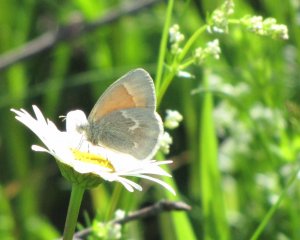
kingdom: Animalia
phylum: Arthropoda
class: Insecta
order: Lepidoptera
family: Nymphalidae
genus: Coenonympha
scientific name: Coenonympha tullia
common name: Large Heath
